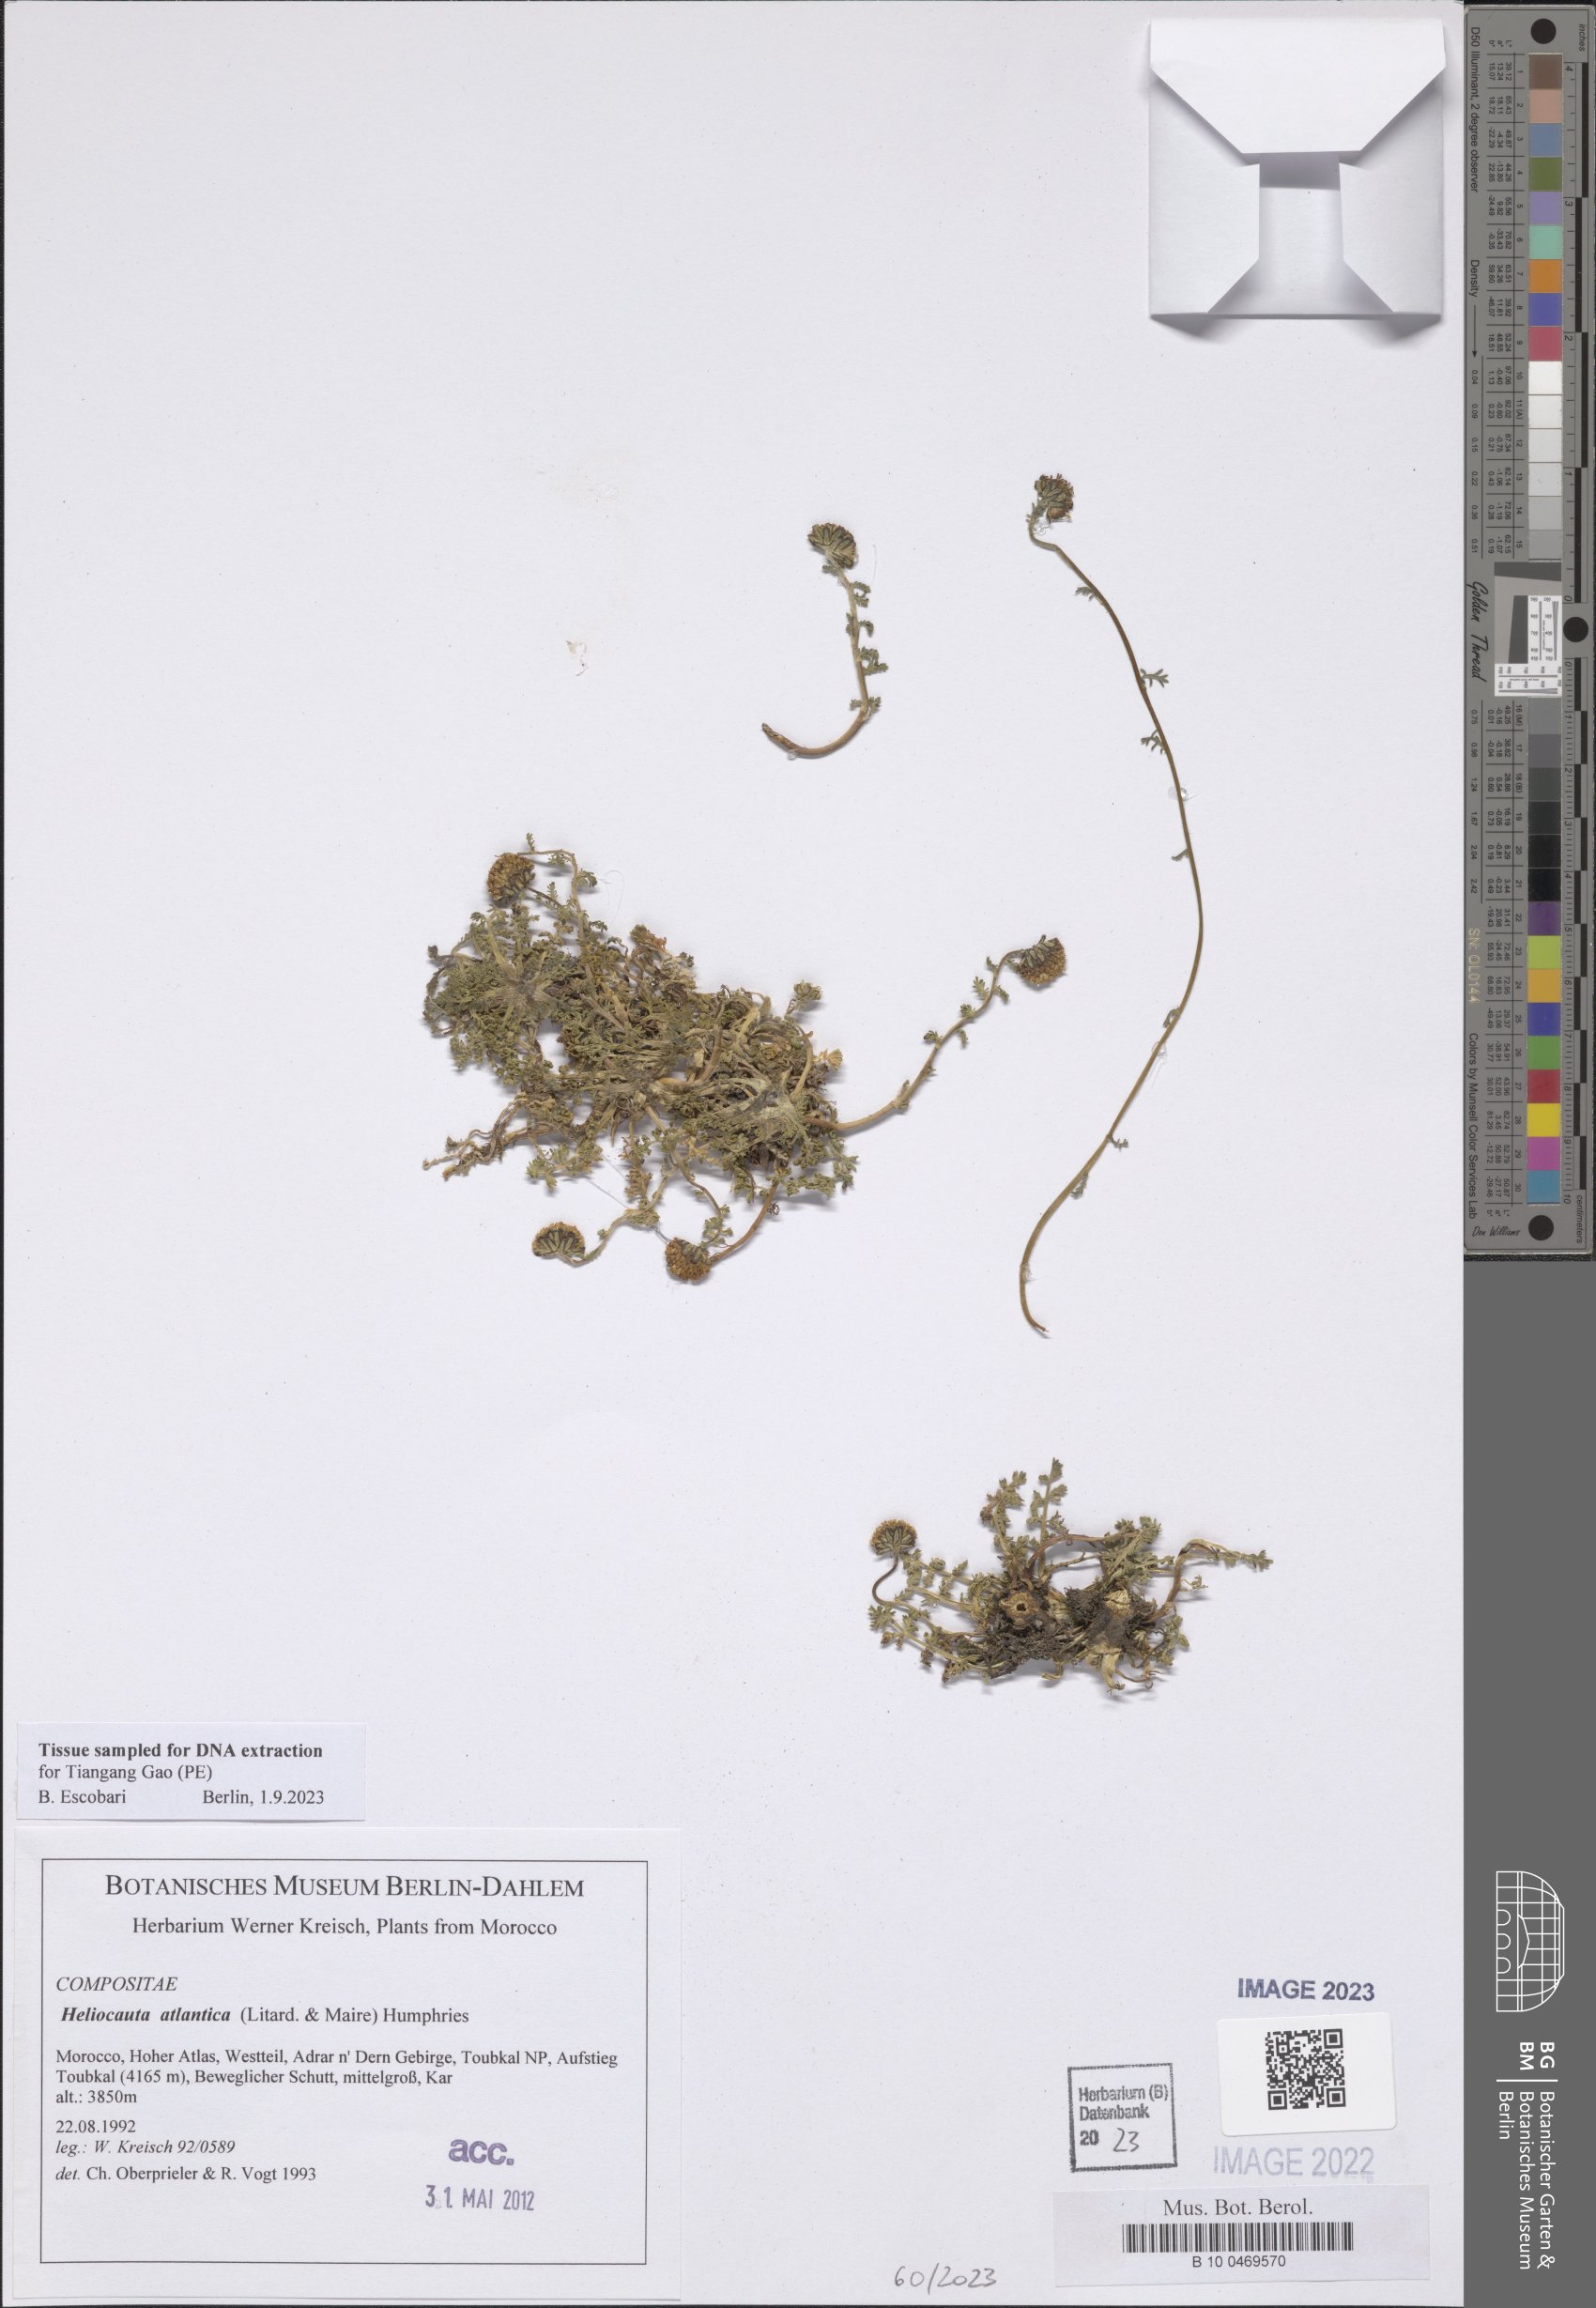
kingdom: Plantae
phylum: Tracheophyta
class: Magnoliopsida
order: Asterales
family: Asteraceae
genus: Heliocauta
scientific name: Heliocauta atlantica
